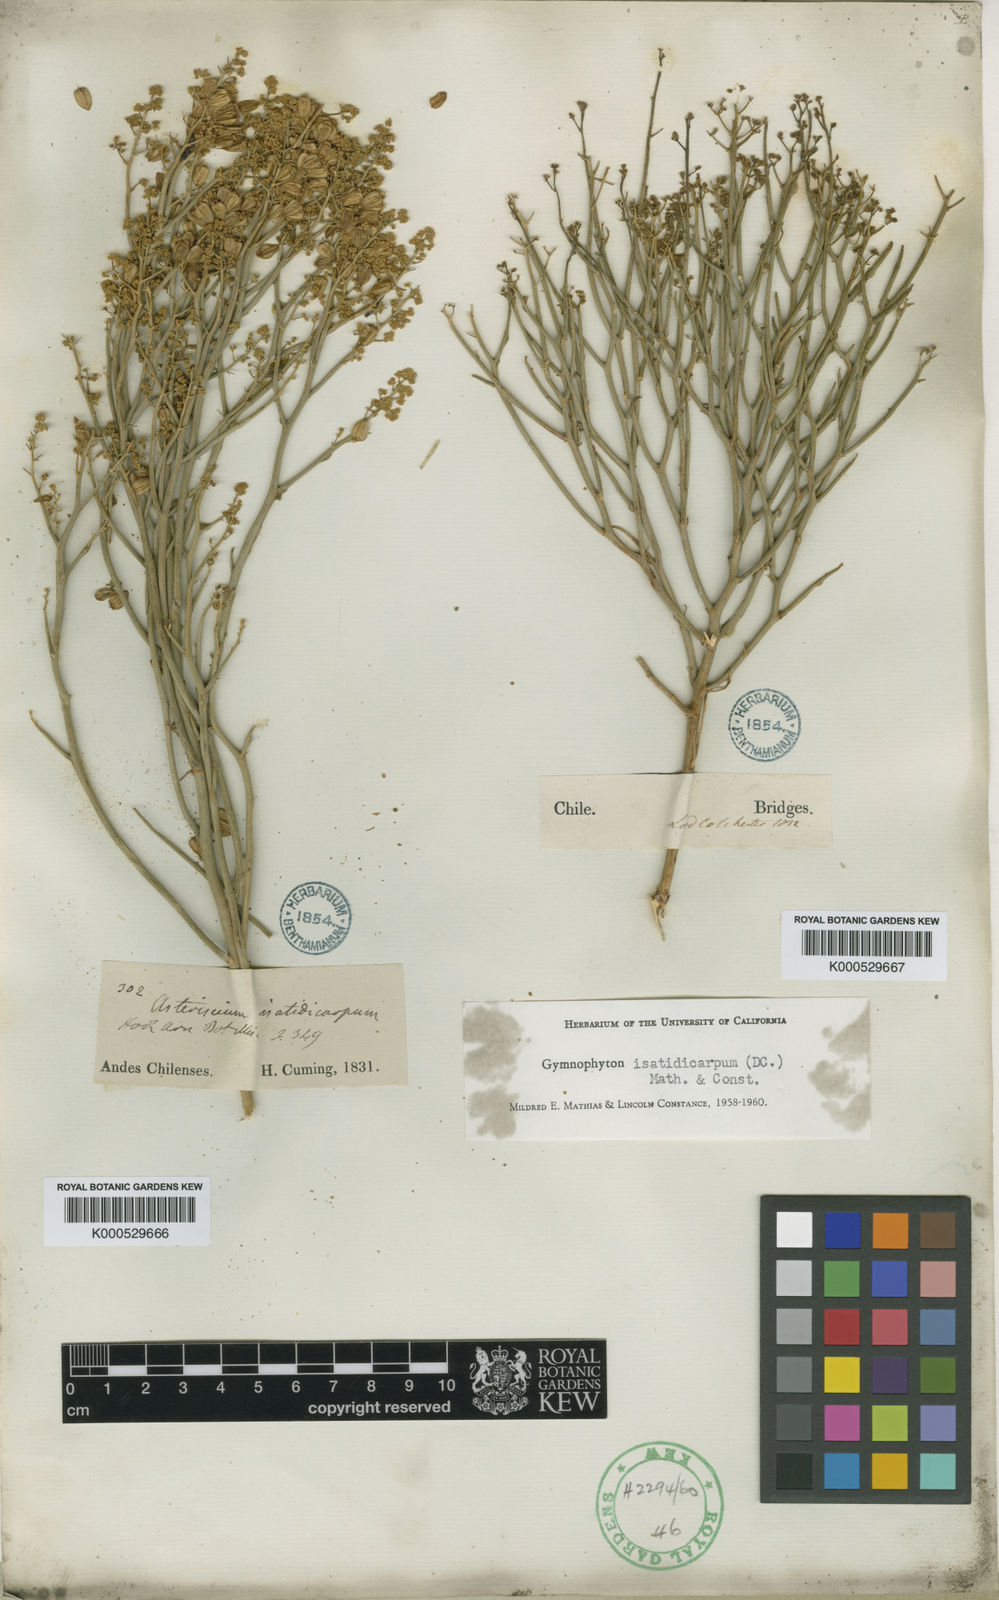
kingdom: Plantae
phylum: Tracheophyta
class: Magnoliopsida
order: Apiales
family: Apiaceae
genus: Gymnophyton
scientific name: Gymnophyton isatidicarpum
